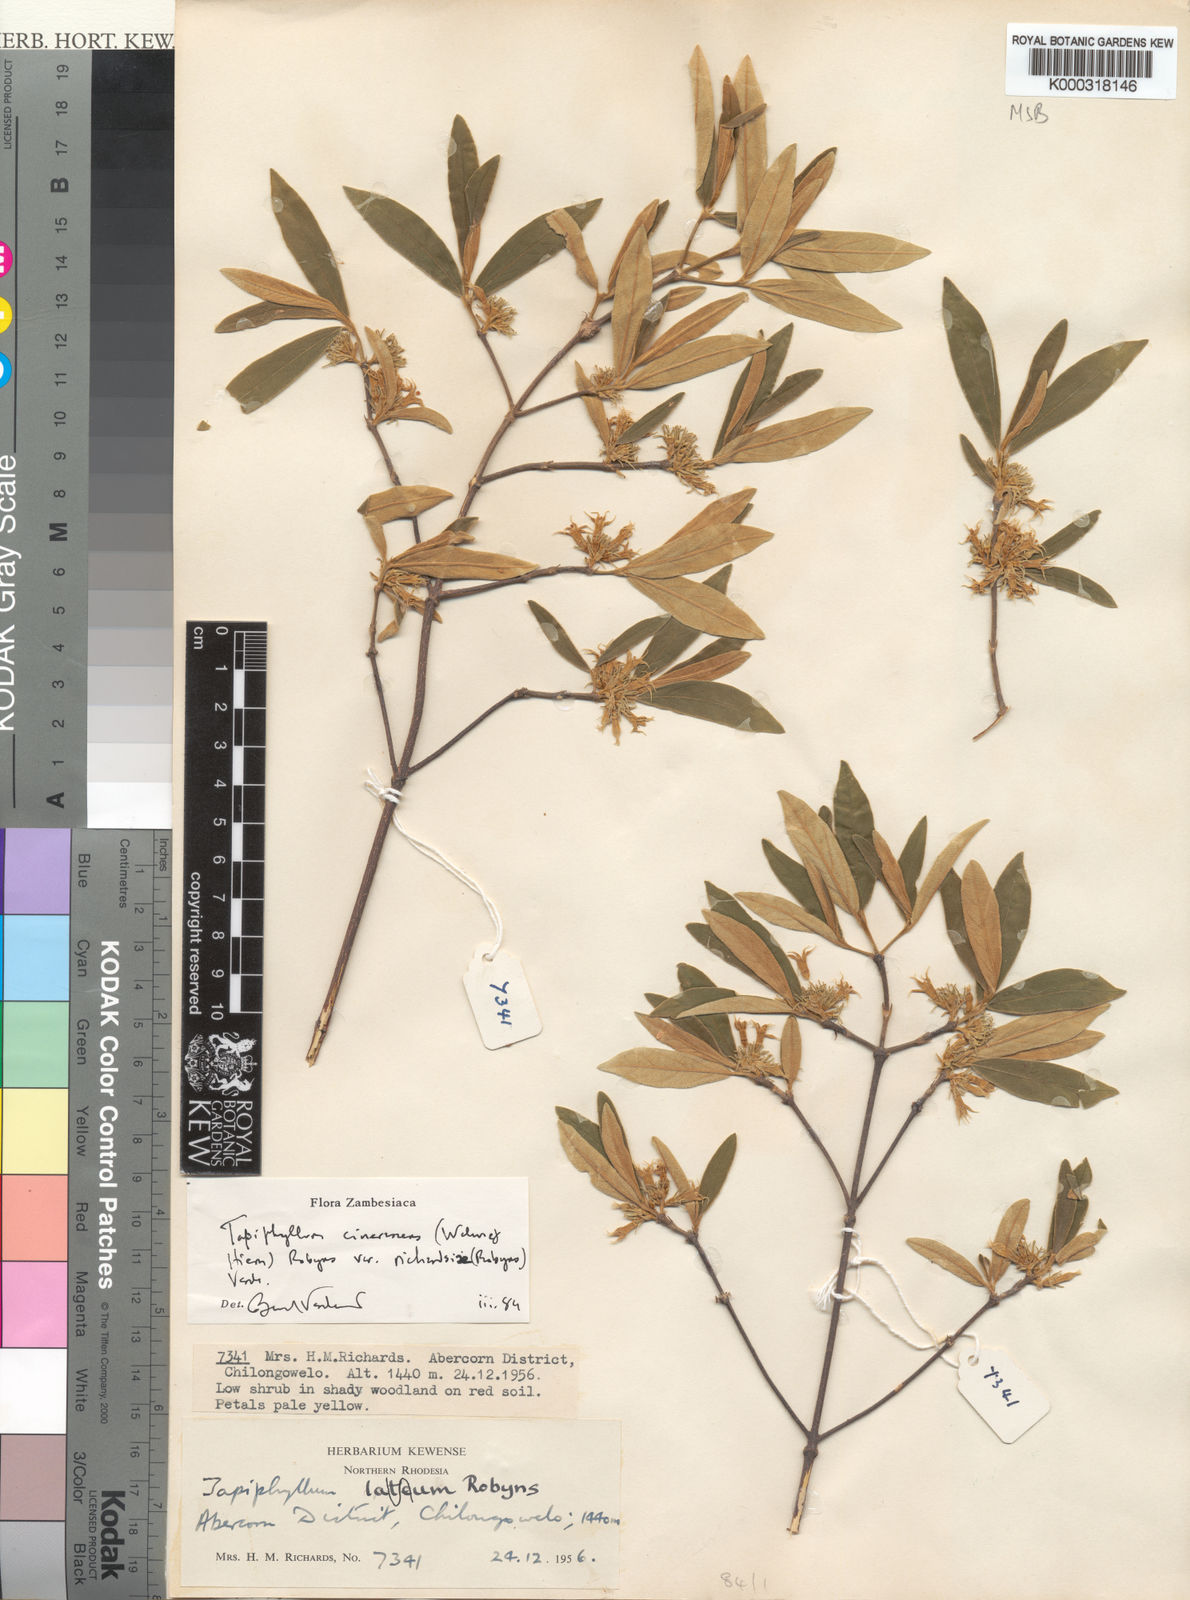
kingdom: Plantae
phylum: Tracheophyta
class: Magnoliopsida
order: Gentianales
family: Rubiaceae
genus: Vangueria
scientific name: Vangueria cinerascens
